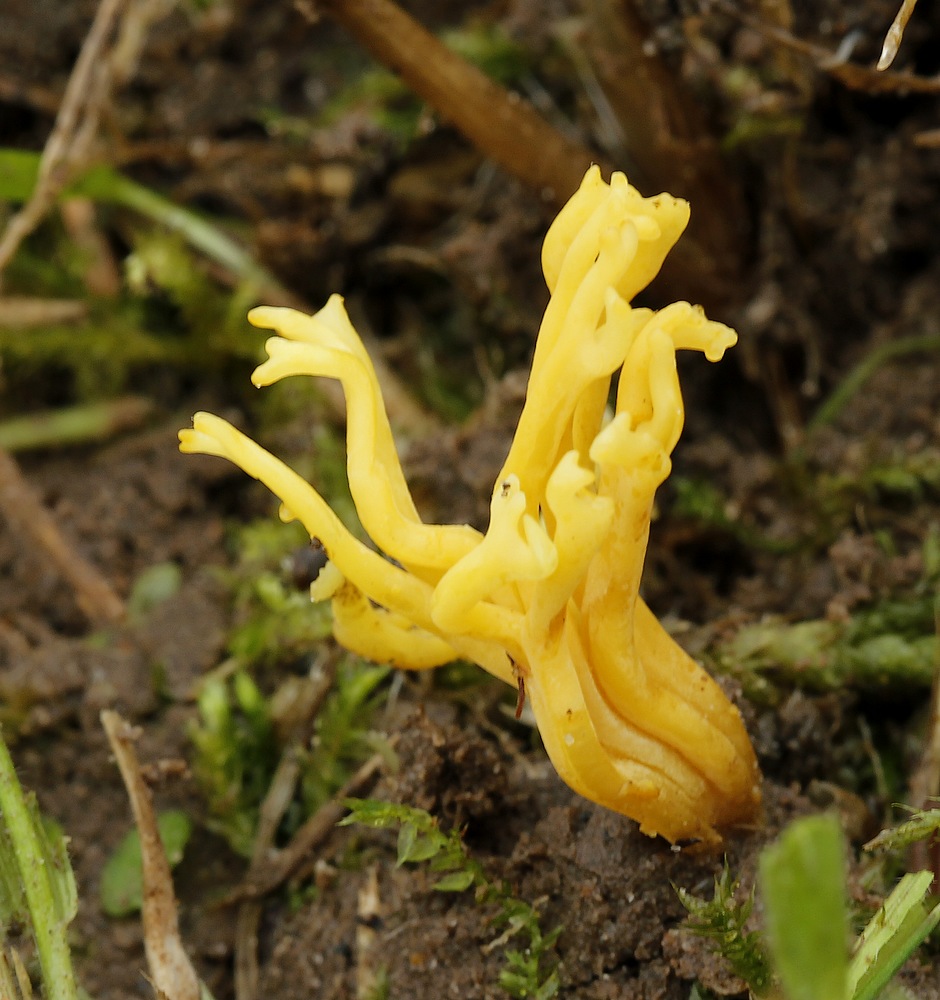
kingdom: Fungi
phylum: Basidiomycota
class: Agaricomycetes
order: Agaricales
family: Clavariaceae
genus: Clavulinopsis
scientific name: Clavulinopsis corniculata
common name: eng-køllesvamp
